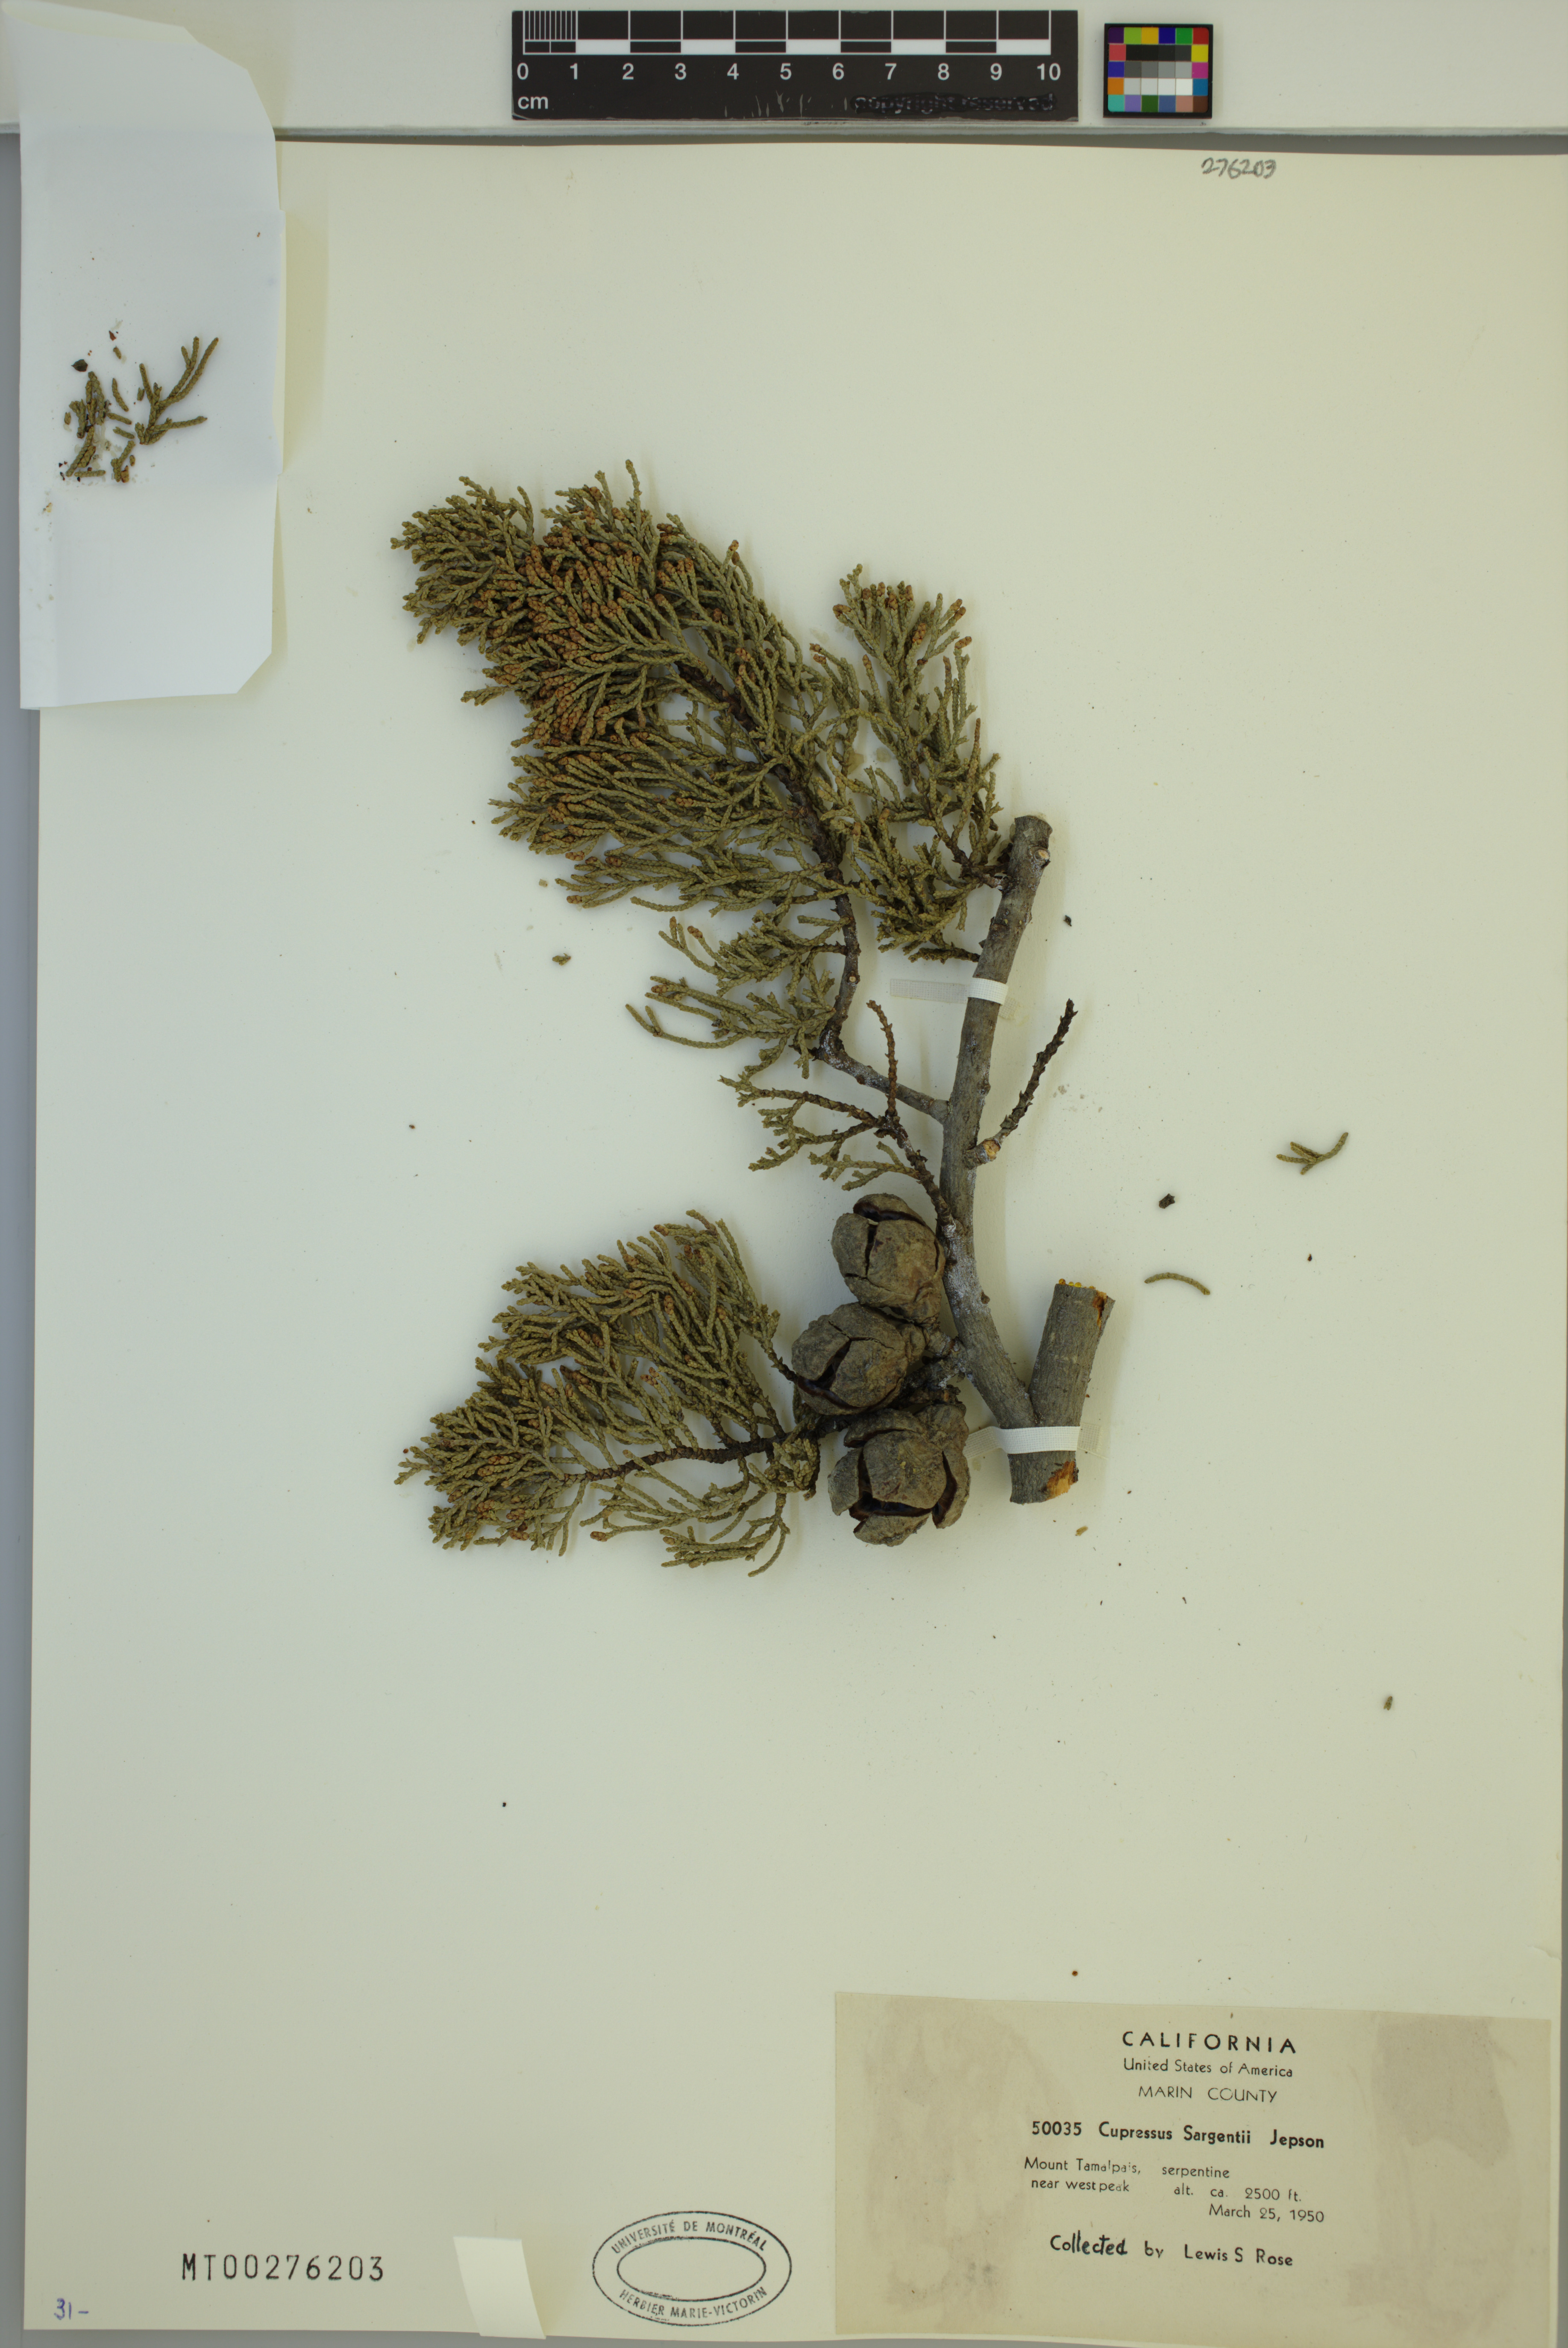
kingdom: Plantae
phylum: Tracheophyta
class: Pinopsida
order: Pinales
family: Cupressaceae
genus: Cupressus
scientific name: Cupressus sargentii
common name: Sargent cypress
